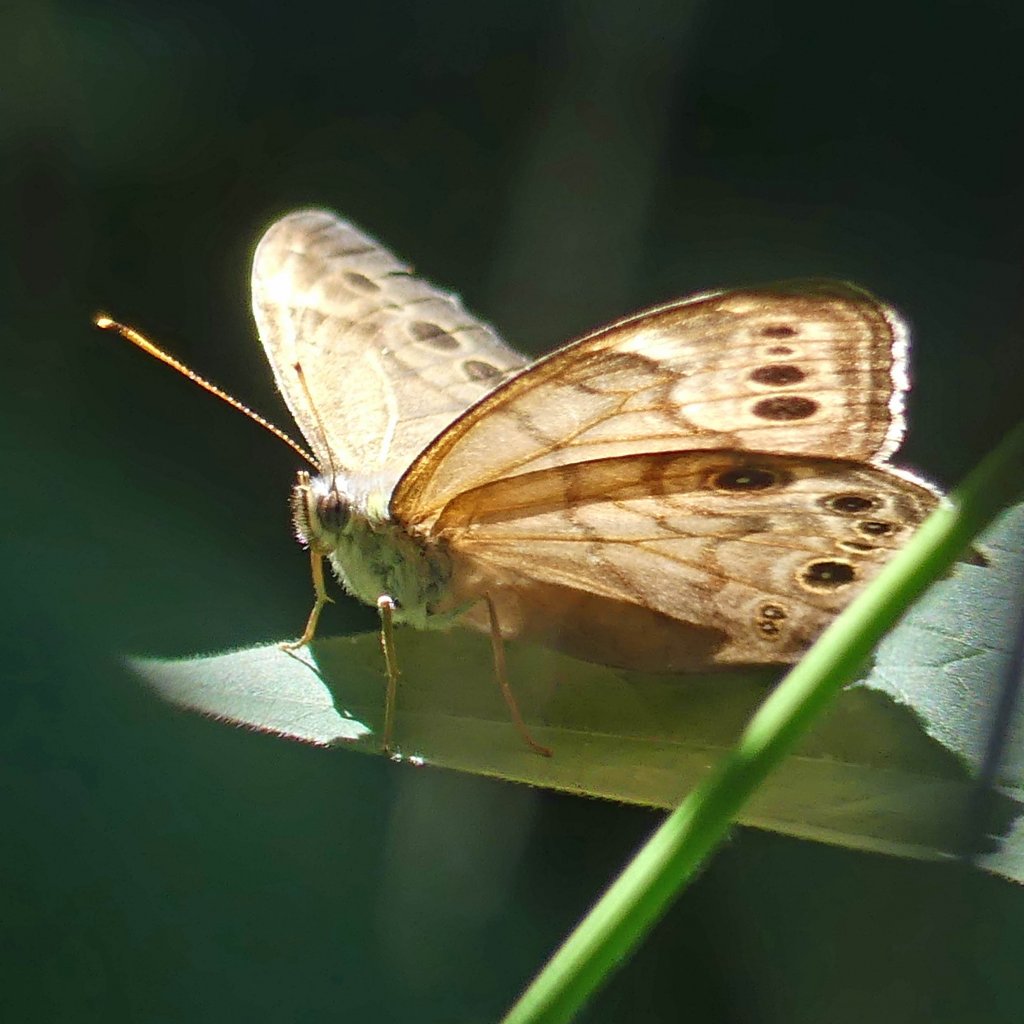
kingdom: Animalia
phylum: Arthropoda
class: Insecta
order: Lepidoptera
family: Nymphalidae
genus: Lethe
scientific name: Lethe anthedon
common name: Northern Pearly-Eye
